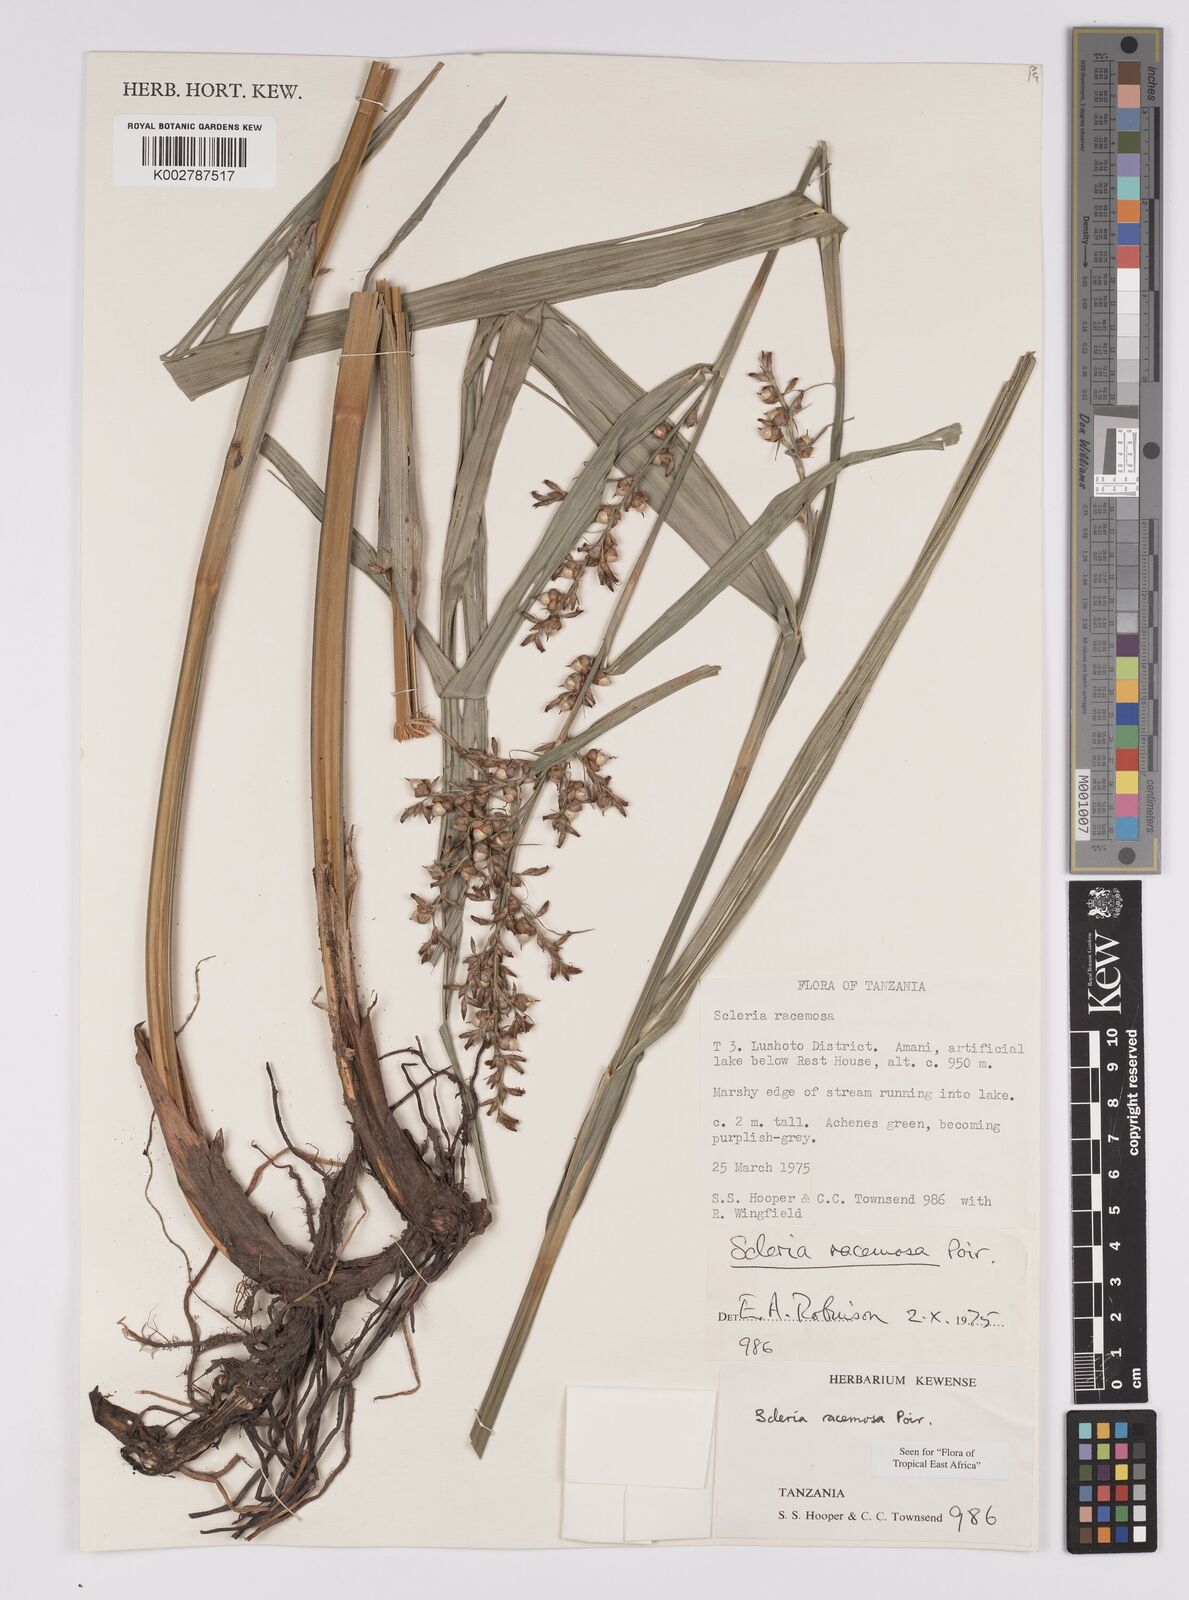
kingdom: Plantae
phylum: Tracheophyta
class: Liliopsida
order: Poales
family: Cyperaceae
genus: Scleria
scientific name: Scleria racemosa
